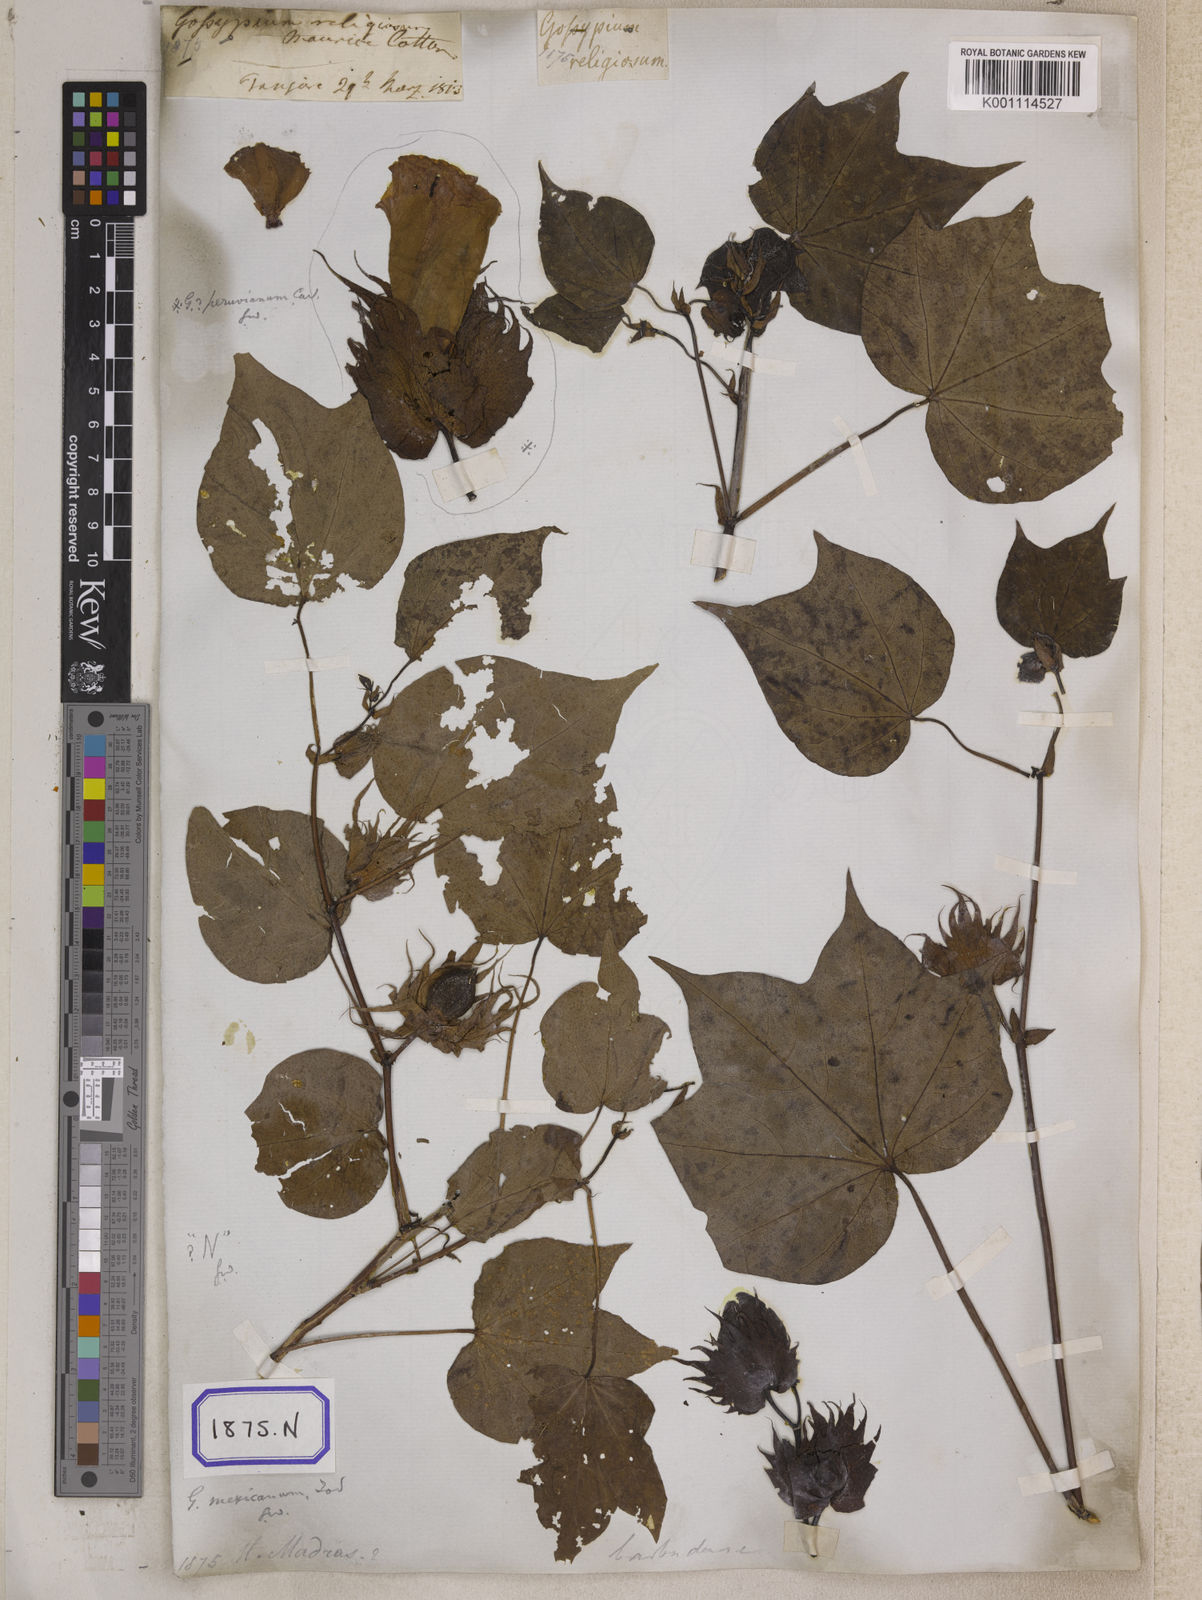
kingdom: Plantae
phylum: Tracheophyta
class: Magnoliopsida
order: Malvales
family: Malvaceae
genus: Gossypium
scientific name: Gossypium barbadense
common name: Creole cotton
